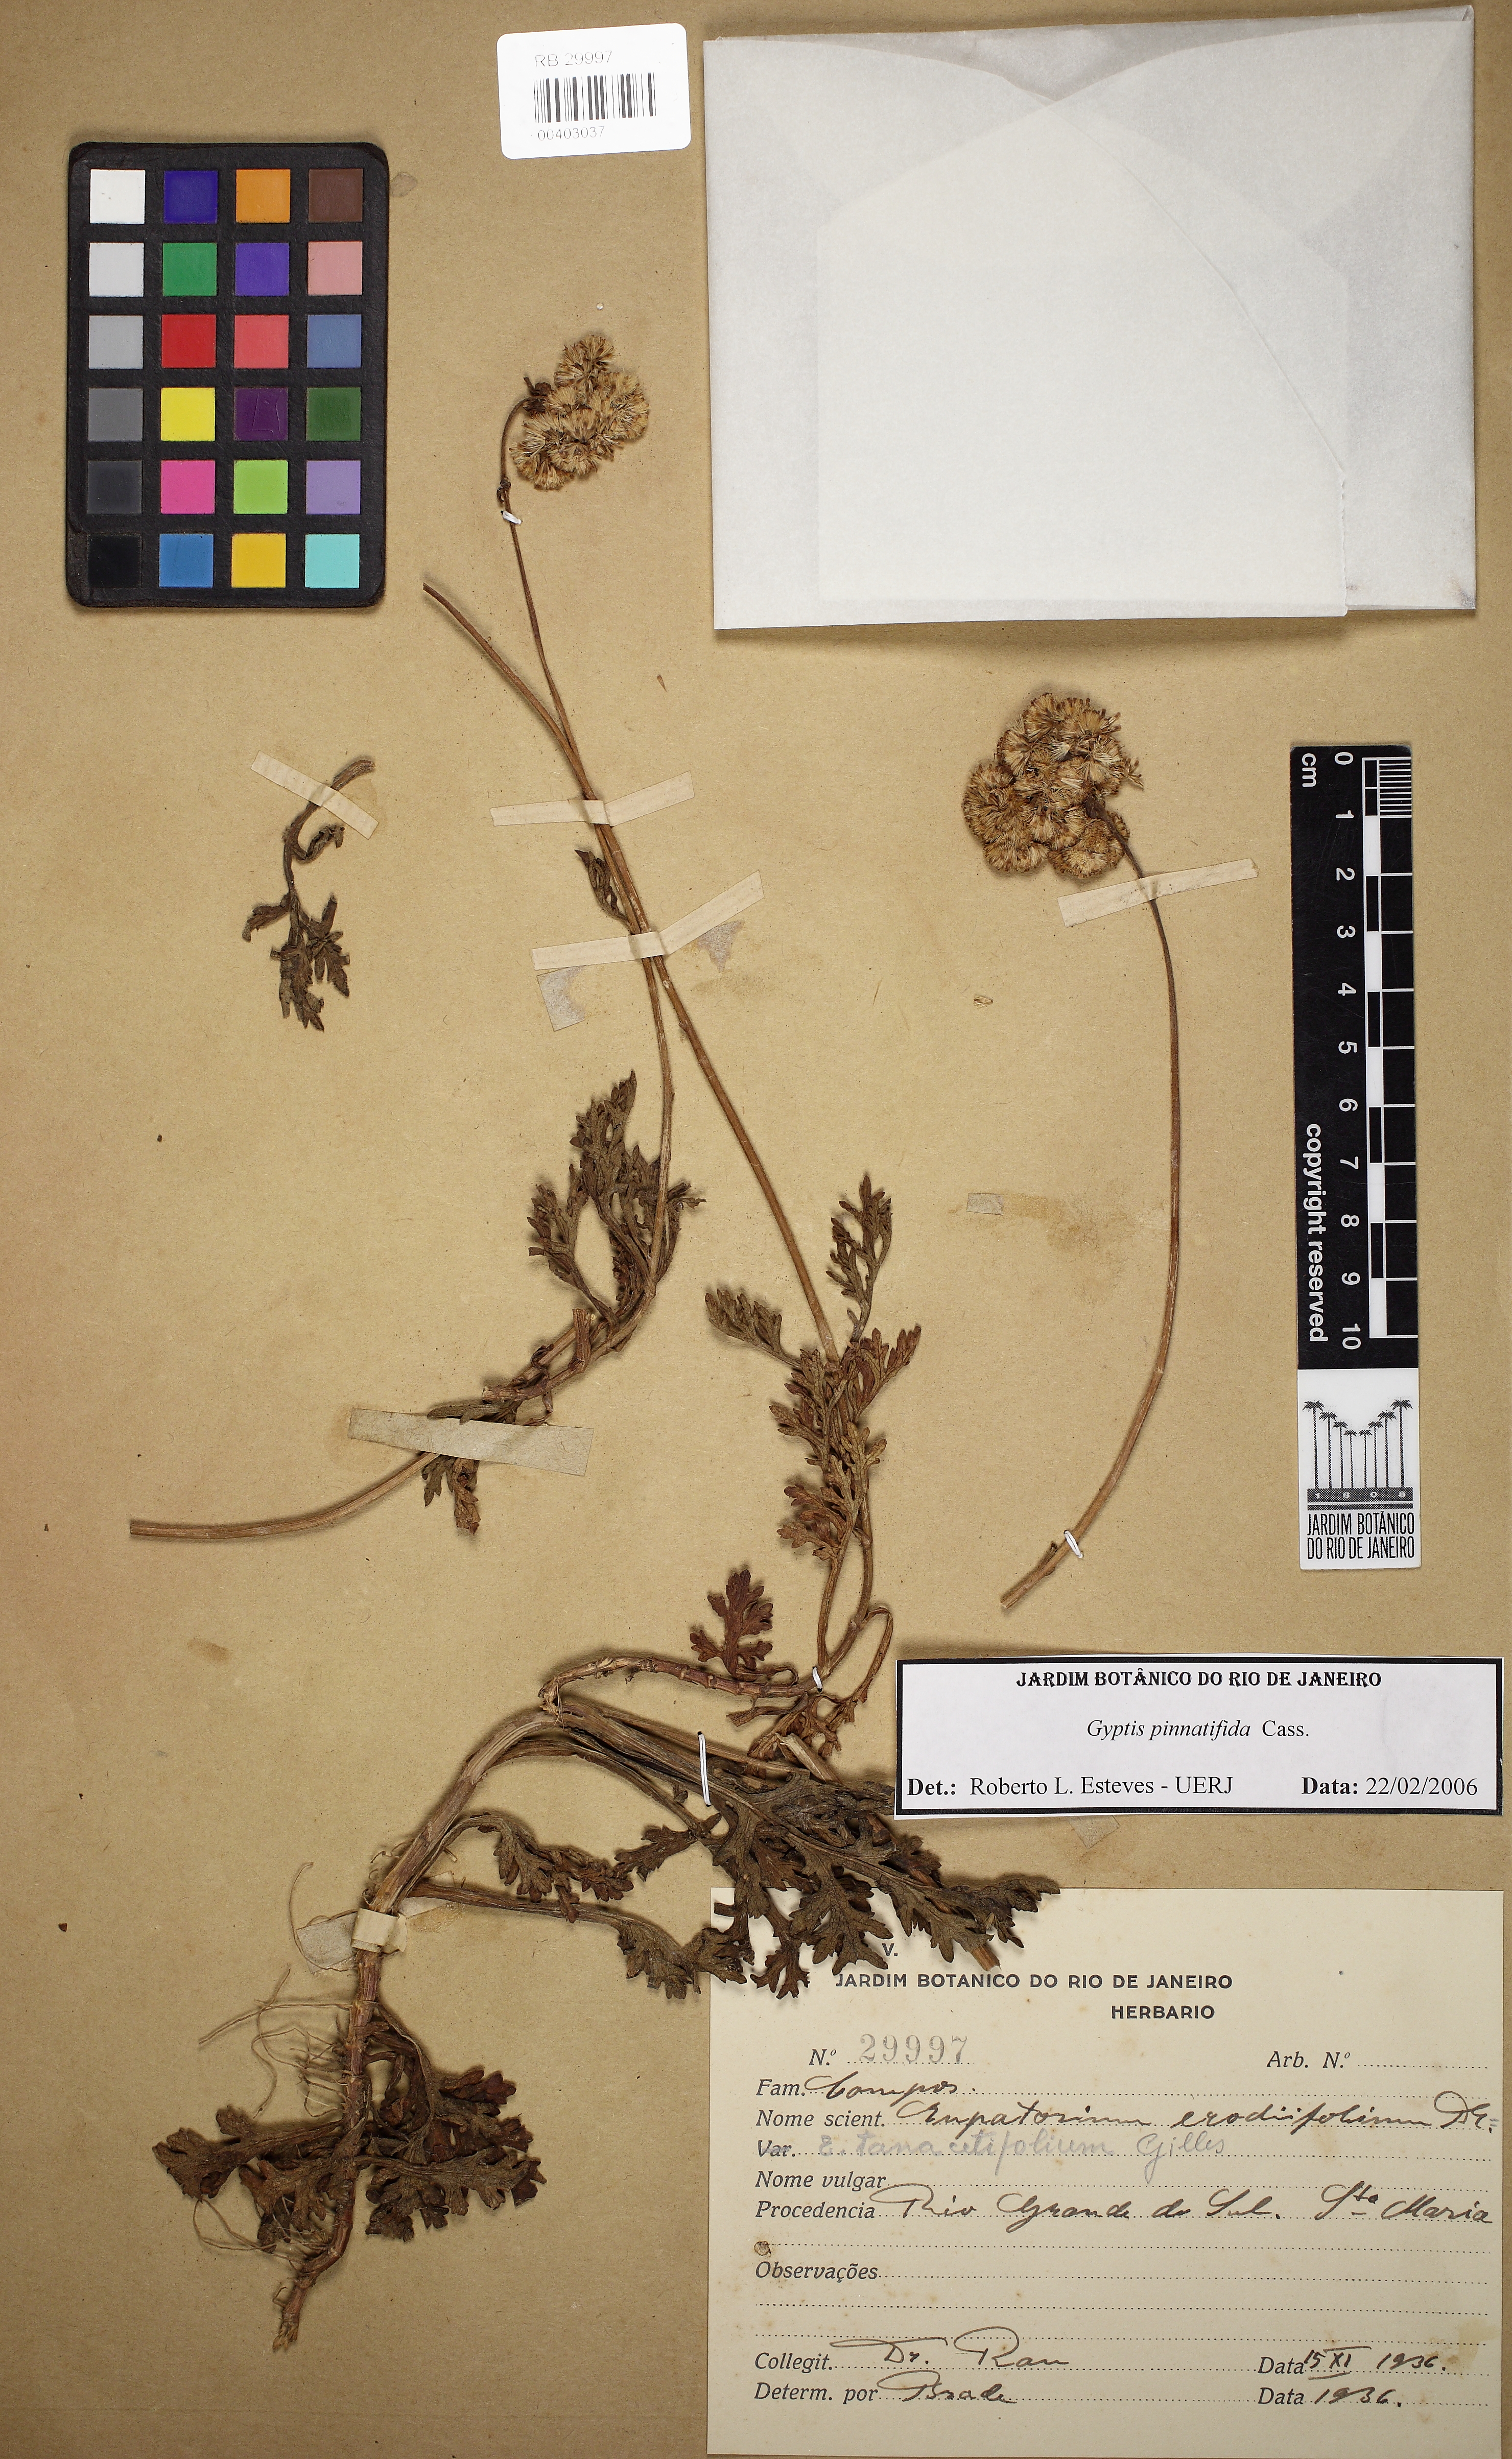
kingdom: Plantae
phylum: Tracheophyta
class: Magnoliopsida
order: Asterales
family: Asteraceae
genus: Gyptis
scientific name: Gyptis pinnatifida
